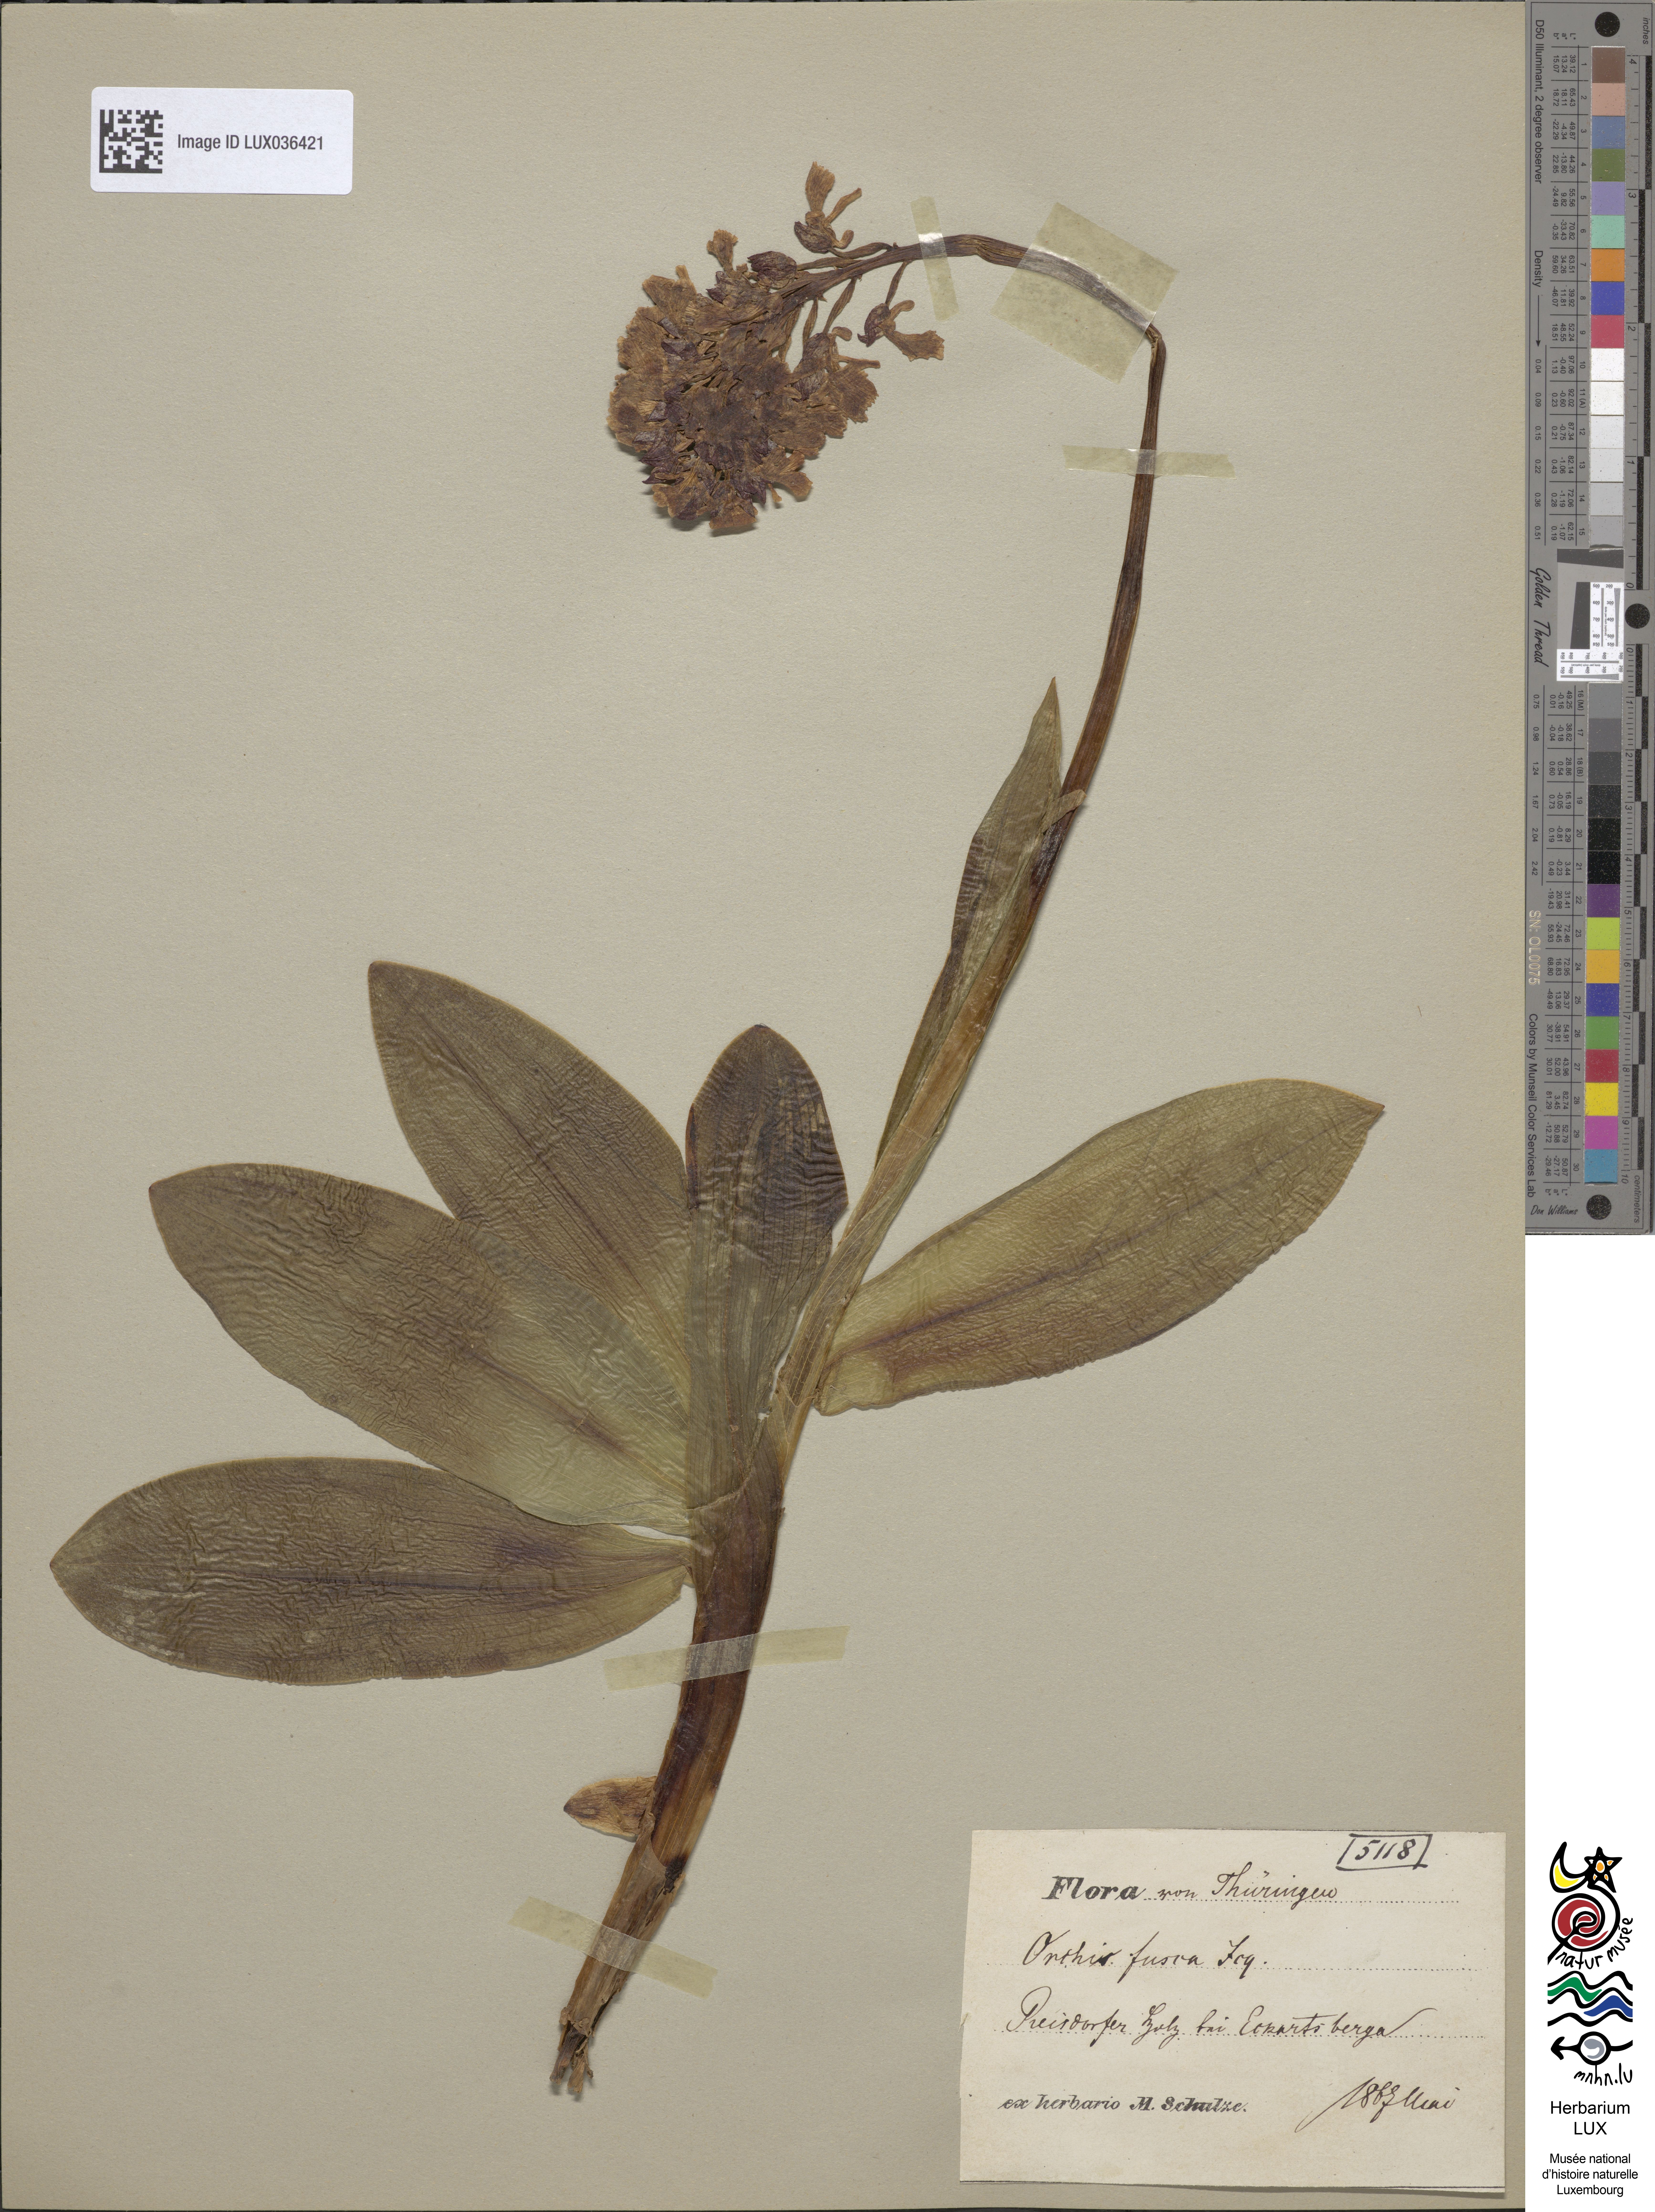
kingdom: Plantae
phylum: Tracheophyta
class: Liliopsida
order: Asparagales
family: Orchidaceae
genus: Orchis
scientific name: Orchis purpurea
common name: Lady orchid
